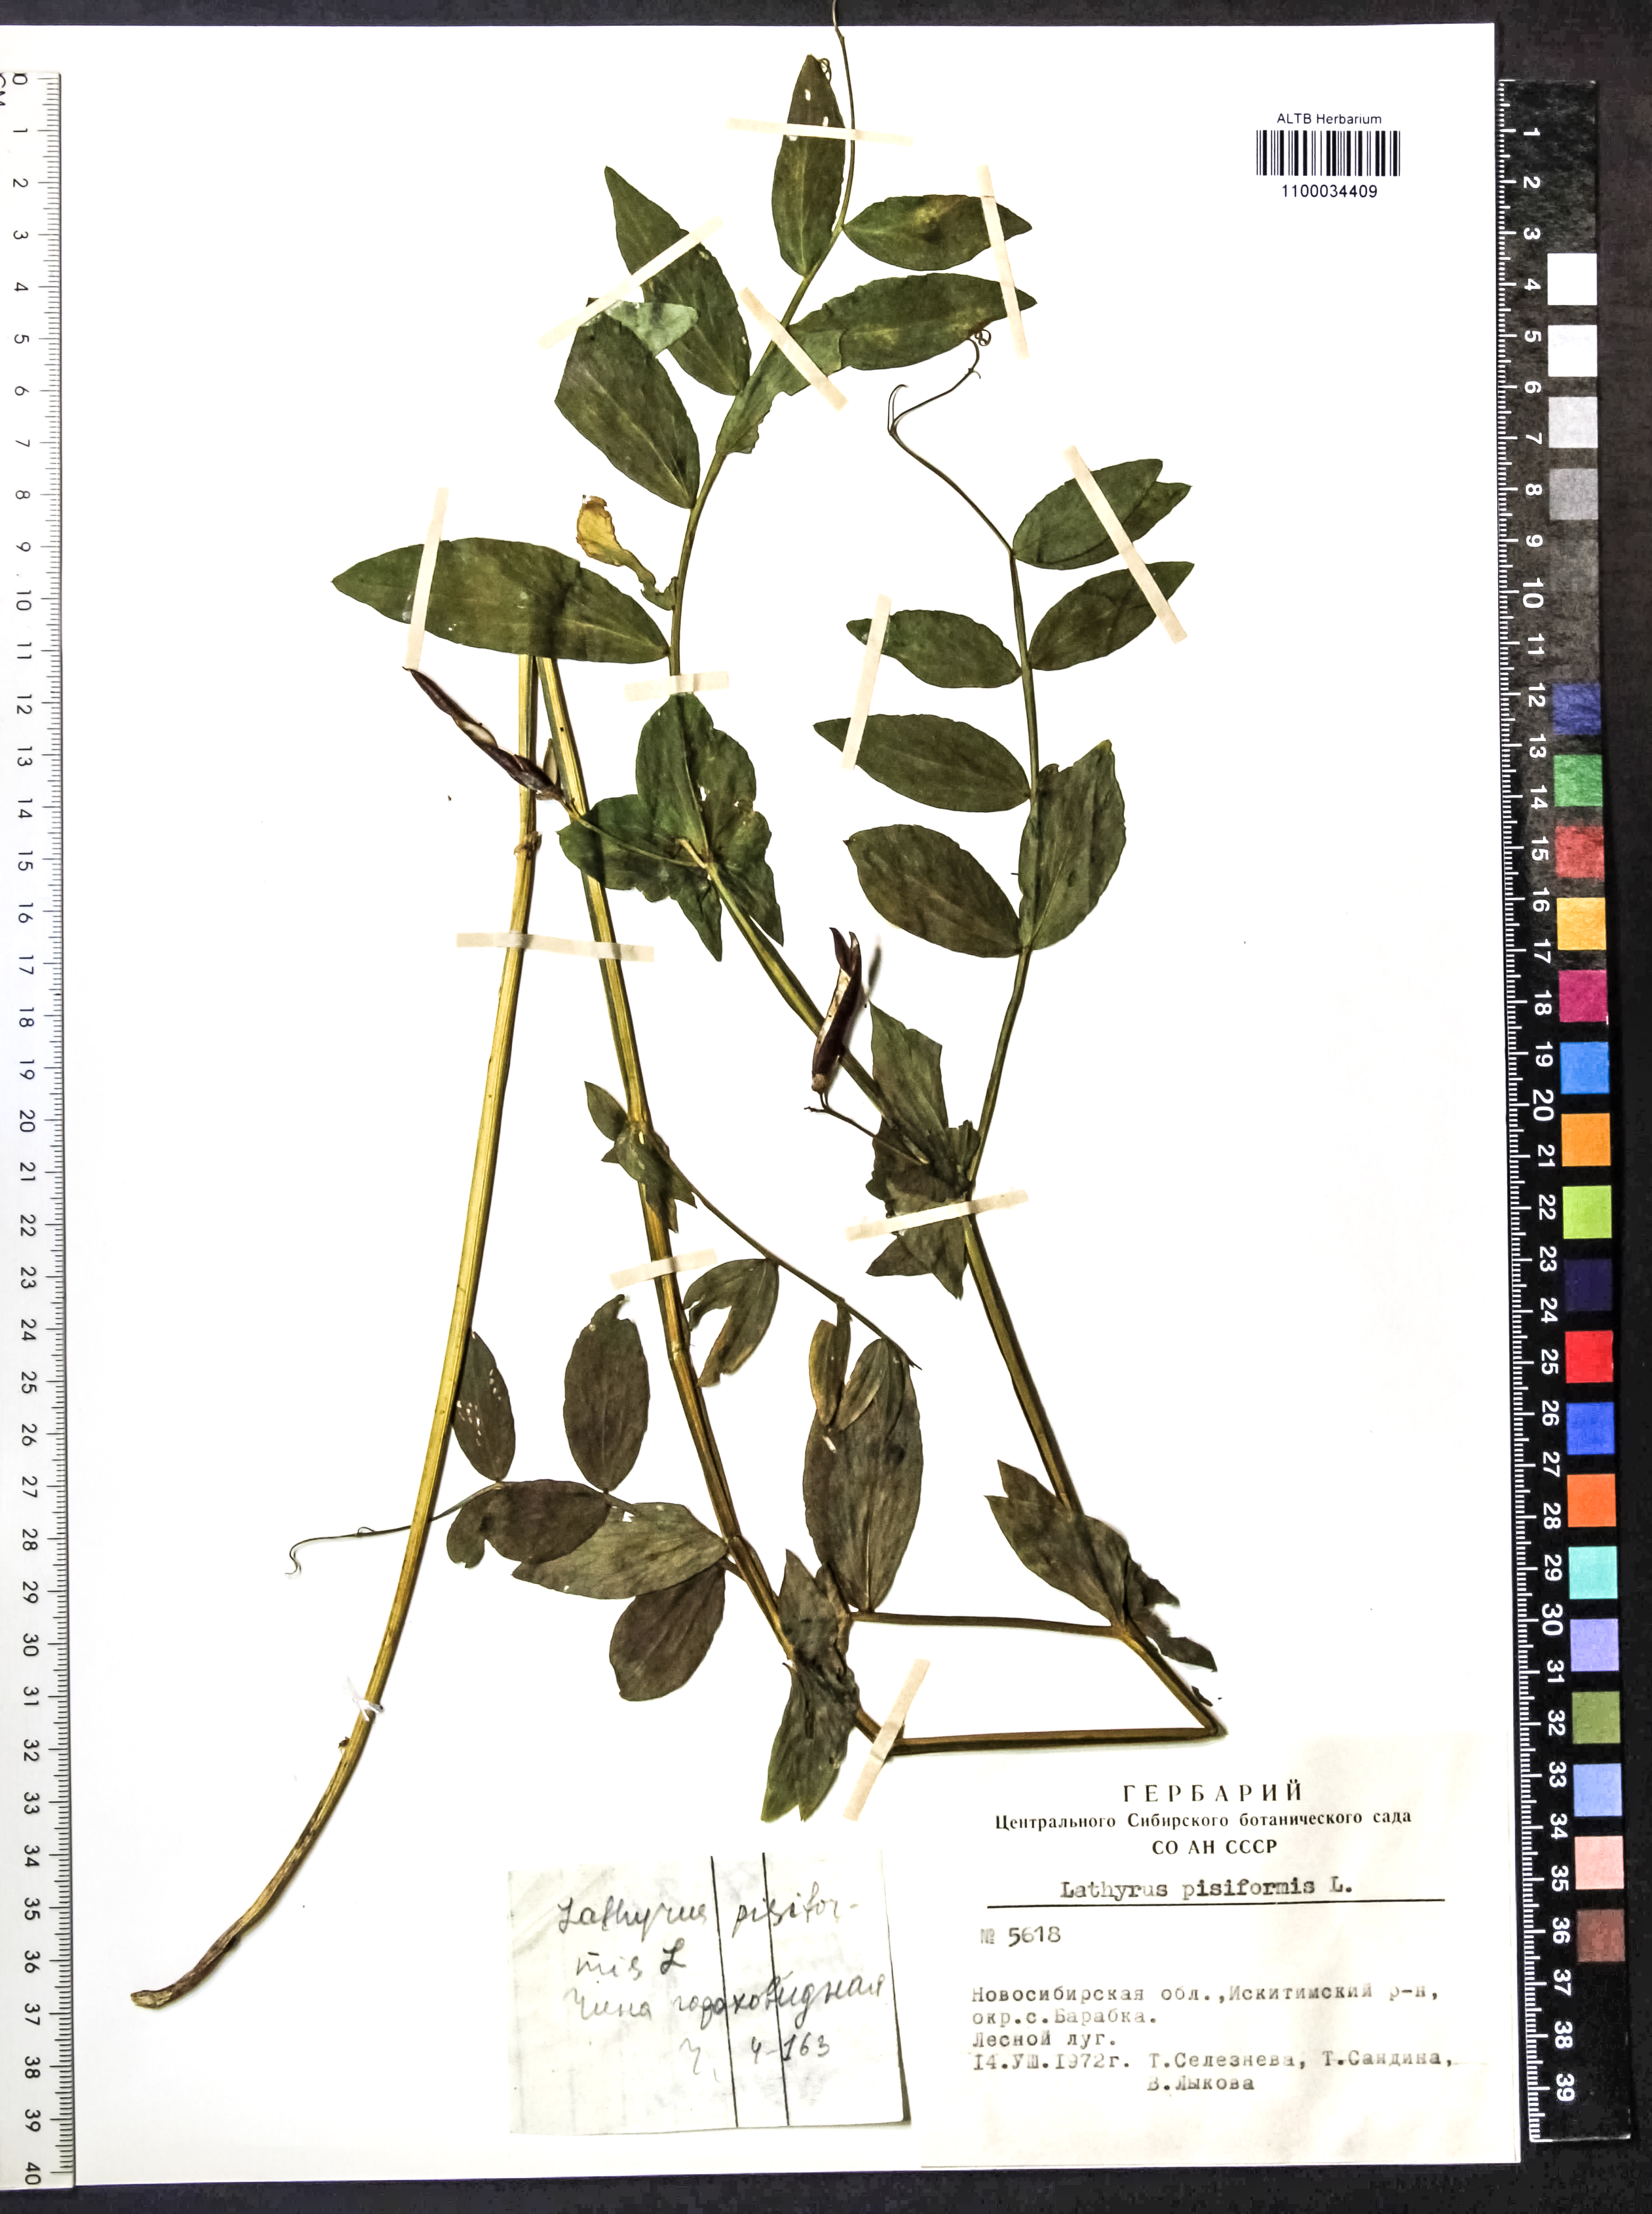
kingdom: Plantae
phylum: Tracheophyta
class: Magnoliopsida
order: Fabales
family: Fabaceae
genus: Lathyrus
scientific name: Lathyrus pisiformis
